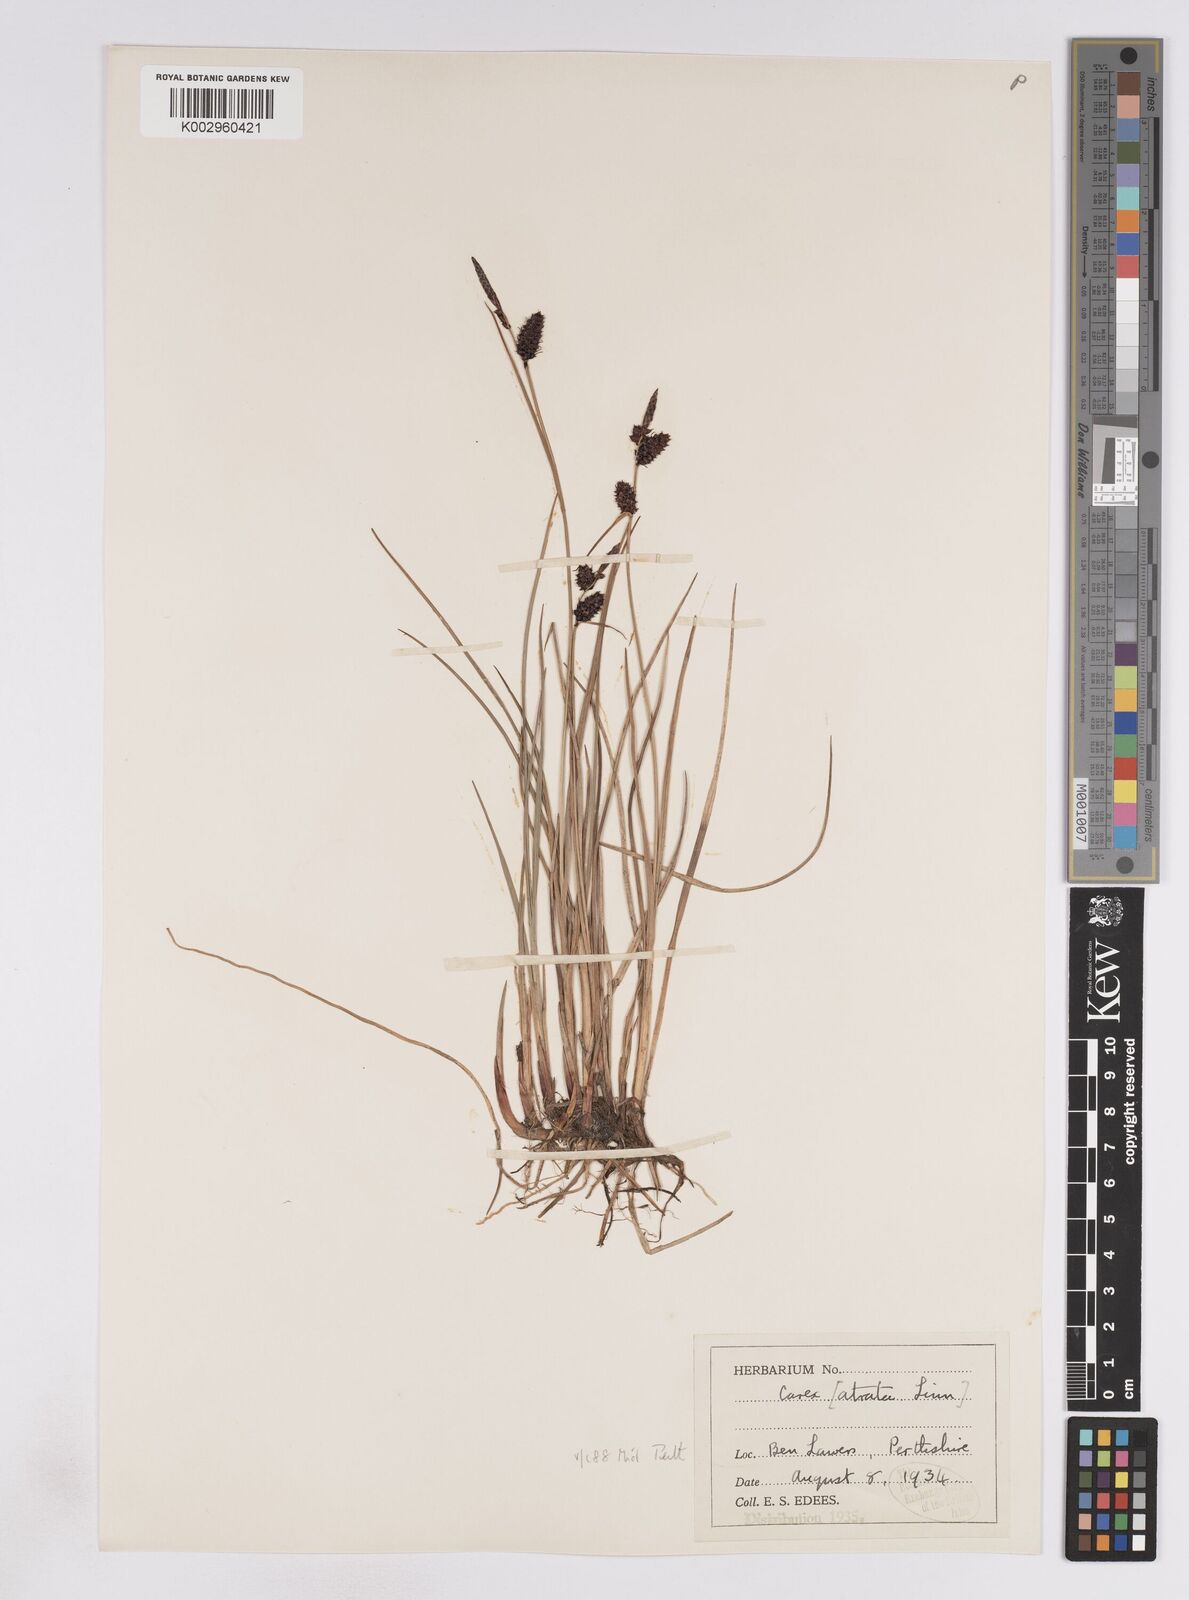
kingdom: Plantae
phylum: Tracheophyta
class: Liliopsida
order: Poales
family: Cyperaceae
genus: Carex
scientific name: Carex saxatilis
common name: Russet sedge
